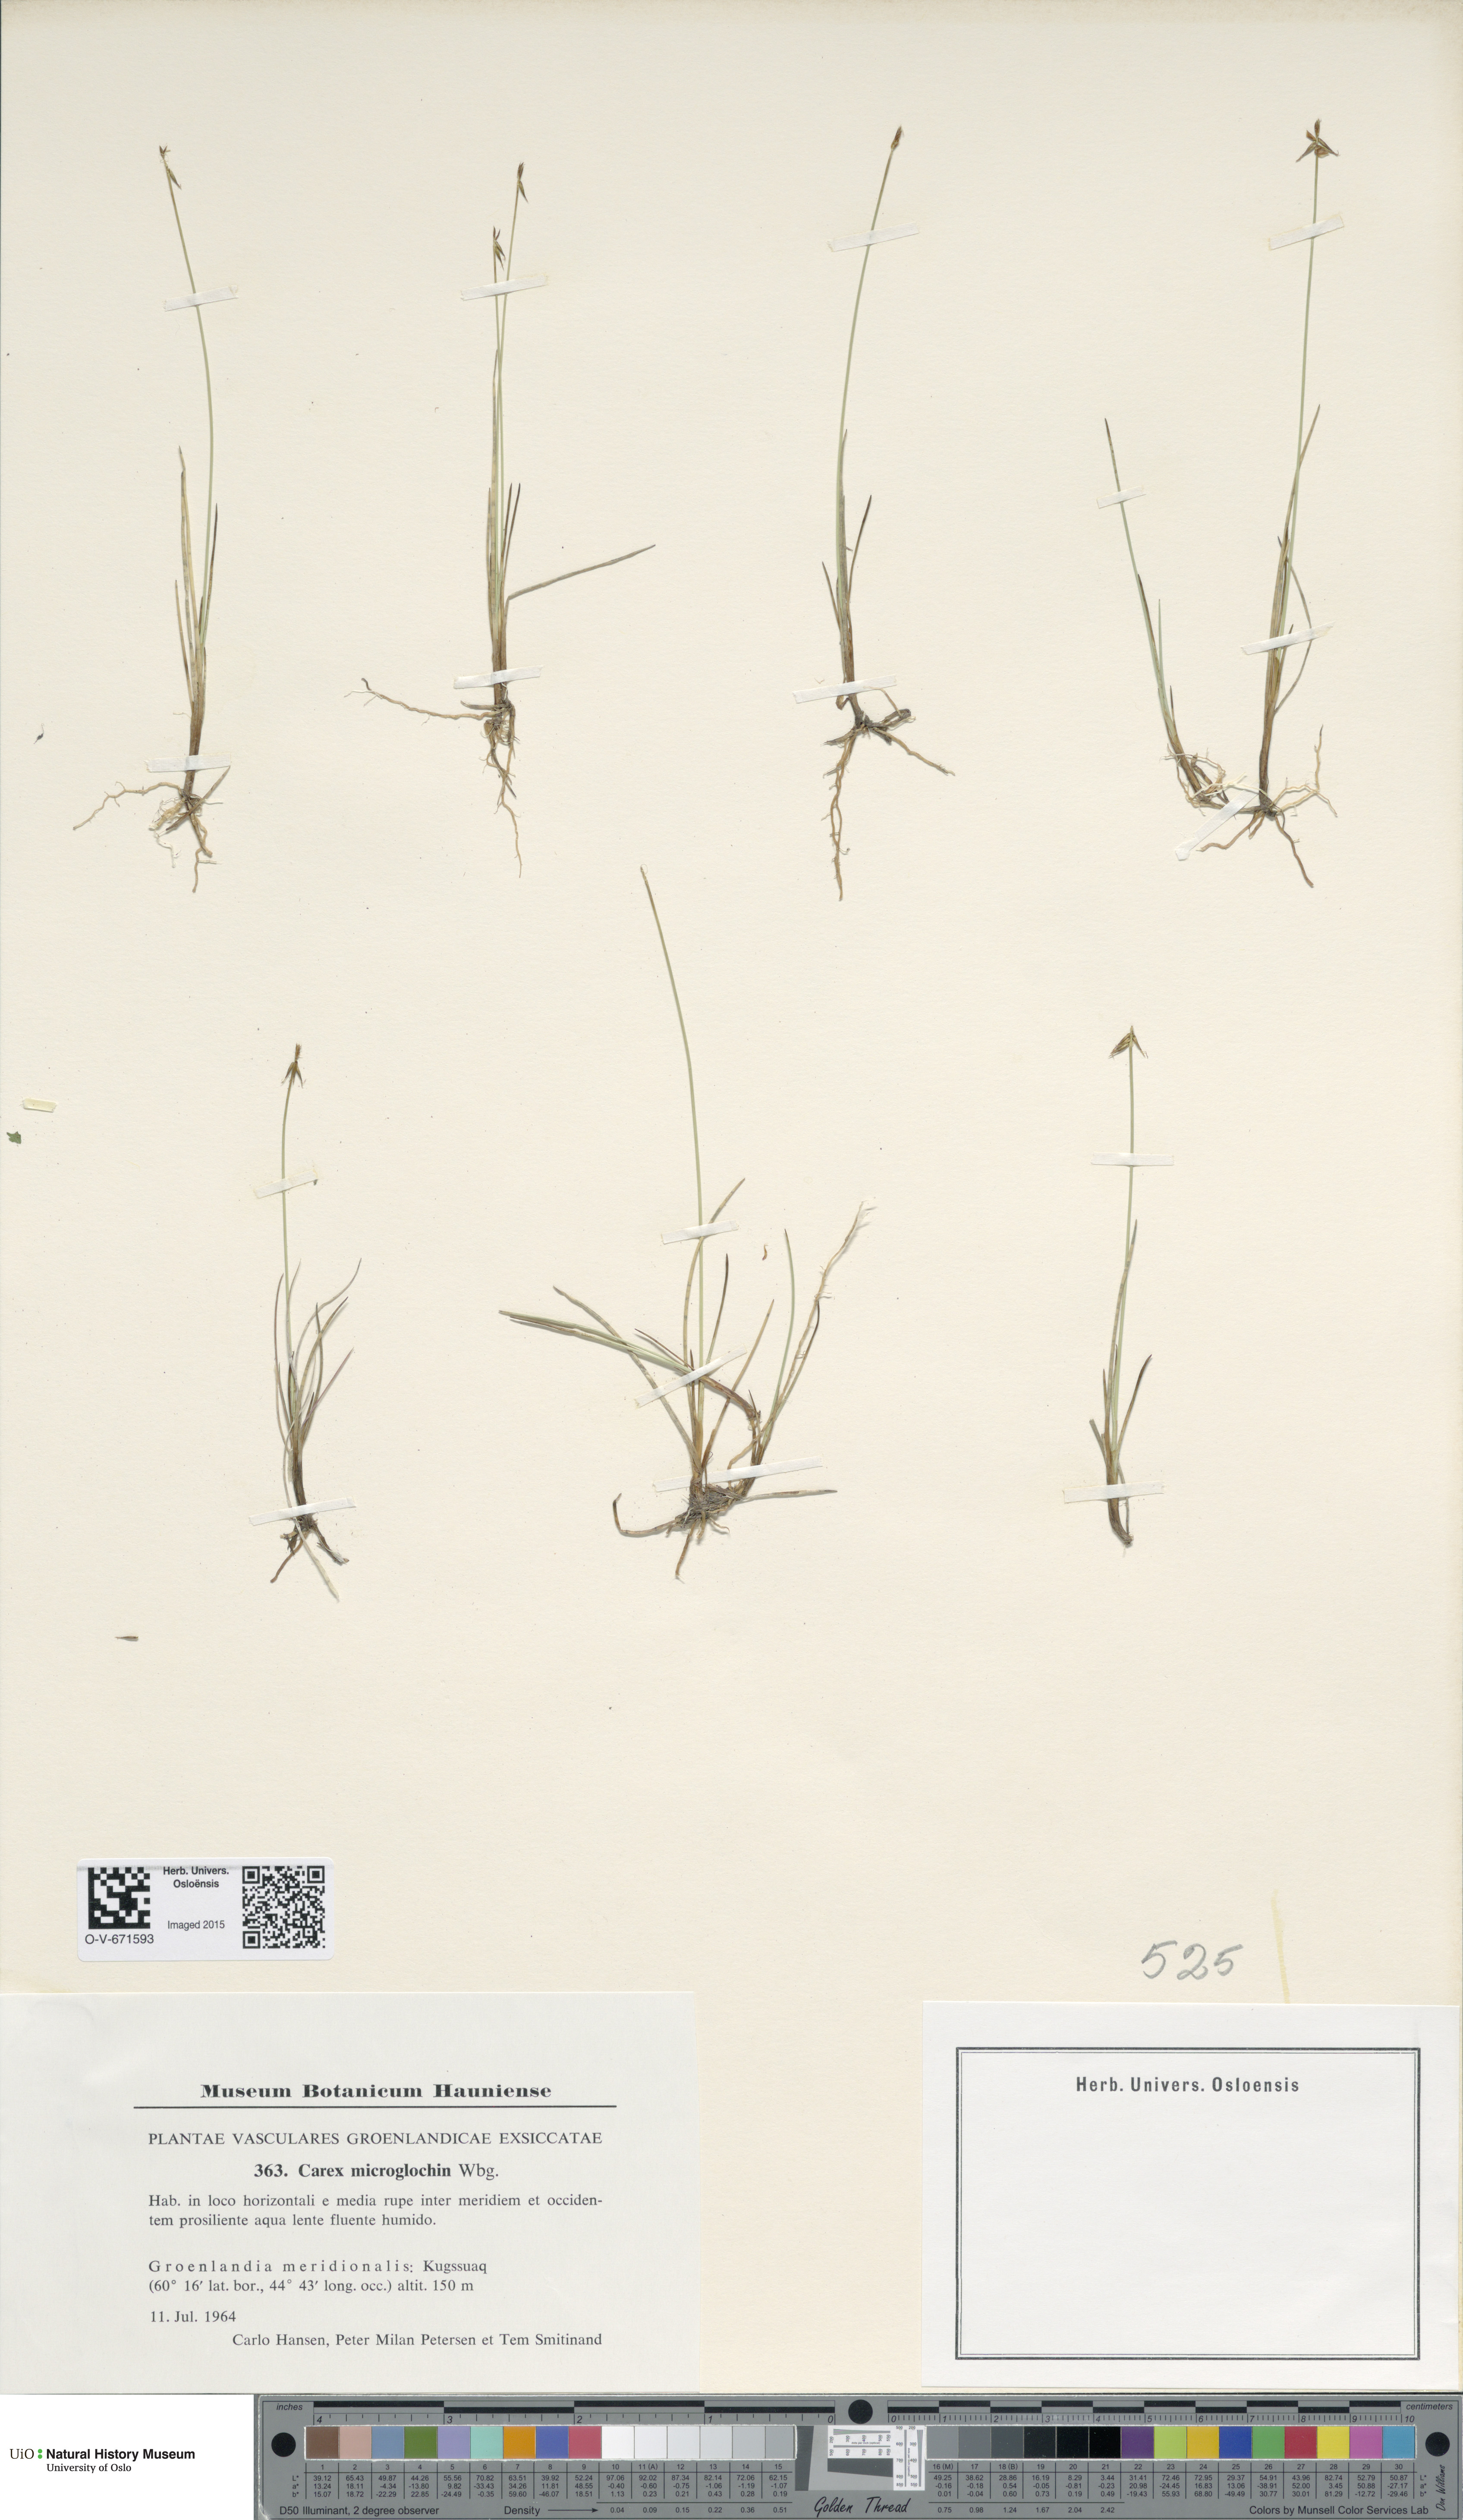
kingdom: Plantae
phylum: Tracheophyta
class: Liliopsida
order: Poales
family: Cyperaceae
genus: Carex
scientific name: Carex microglochin
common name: Bristle sedge
